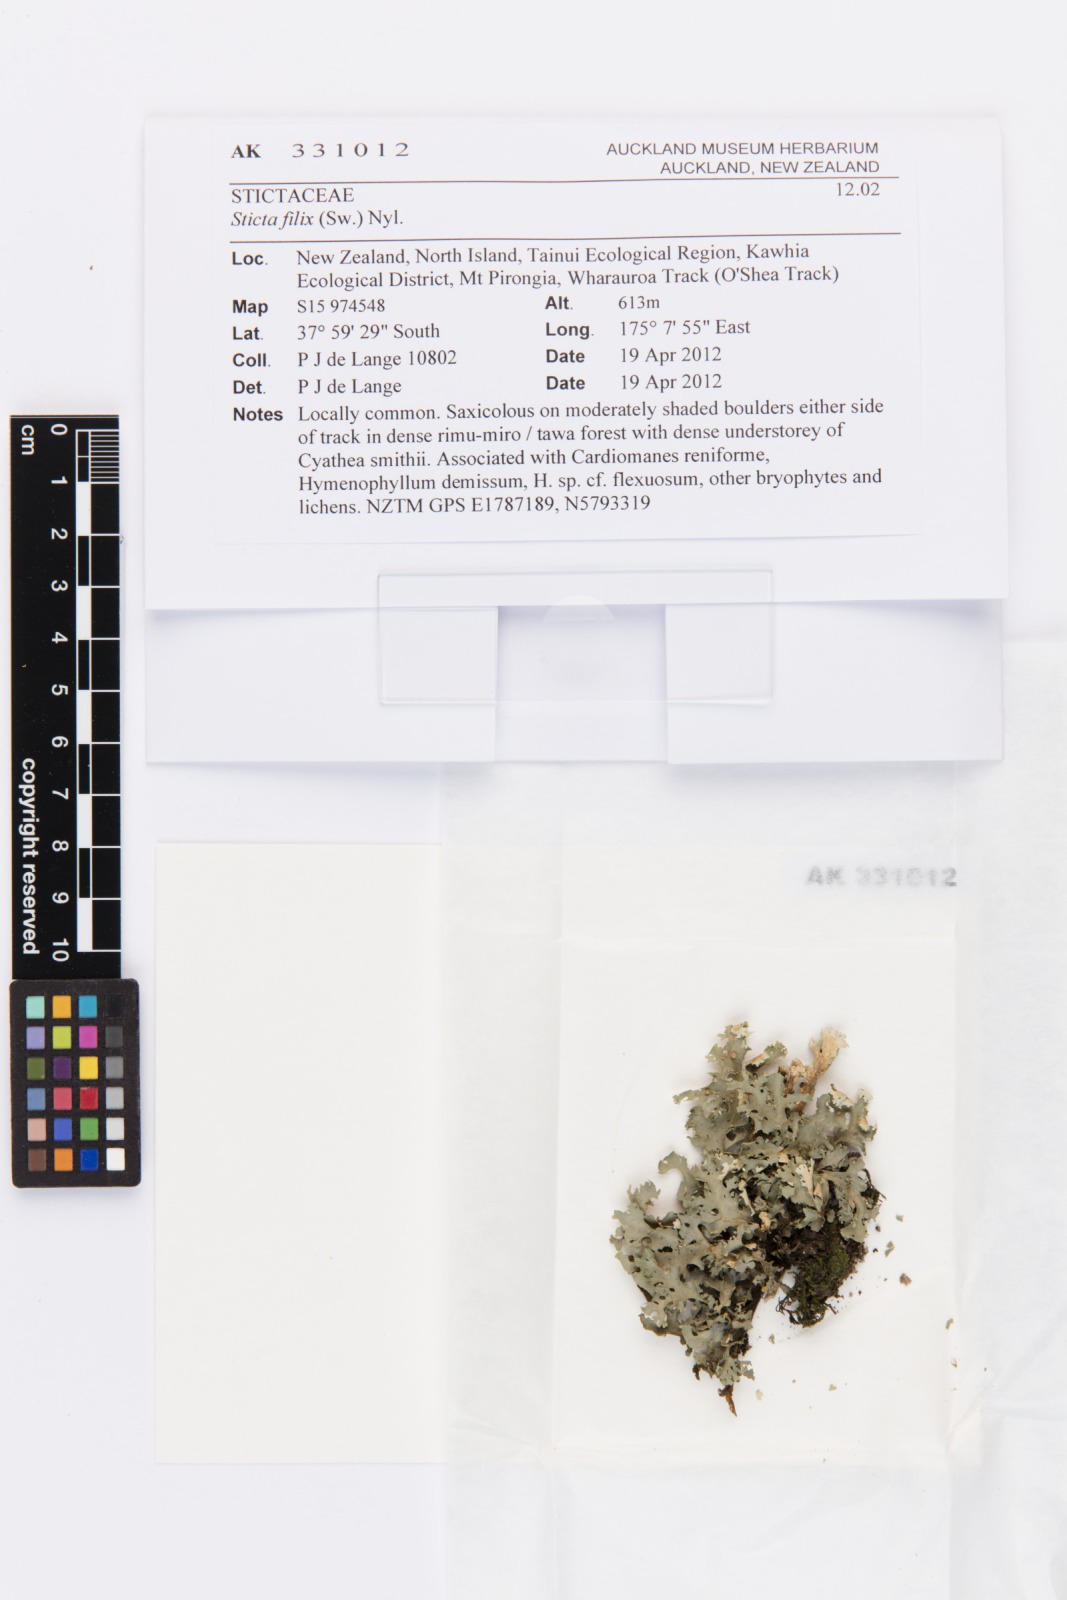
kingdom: Fungi
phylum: Ascomycota
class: Lecanoromycetes
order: Peltigerales
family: Lobariaceae
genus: Sticta
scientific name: Sticta filix
